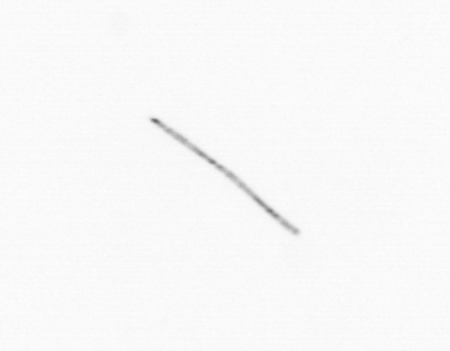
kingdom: Chromista
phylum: Ochrophyta
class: Bacillariophyceae
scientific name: Bacillariophyceae
